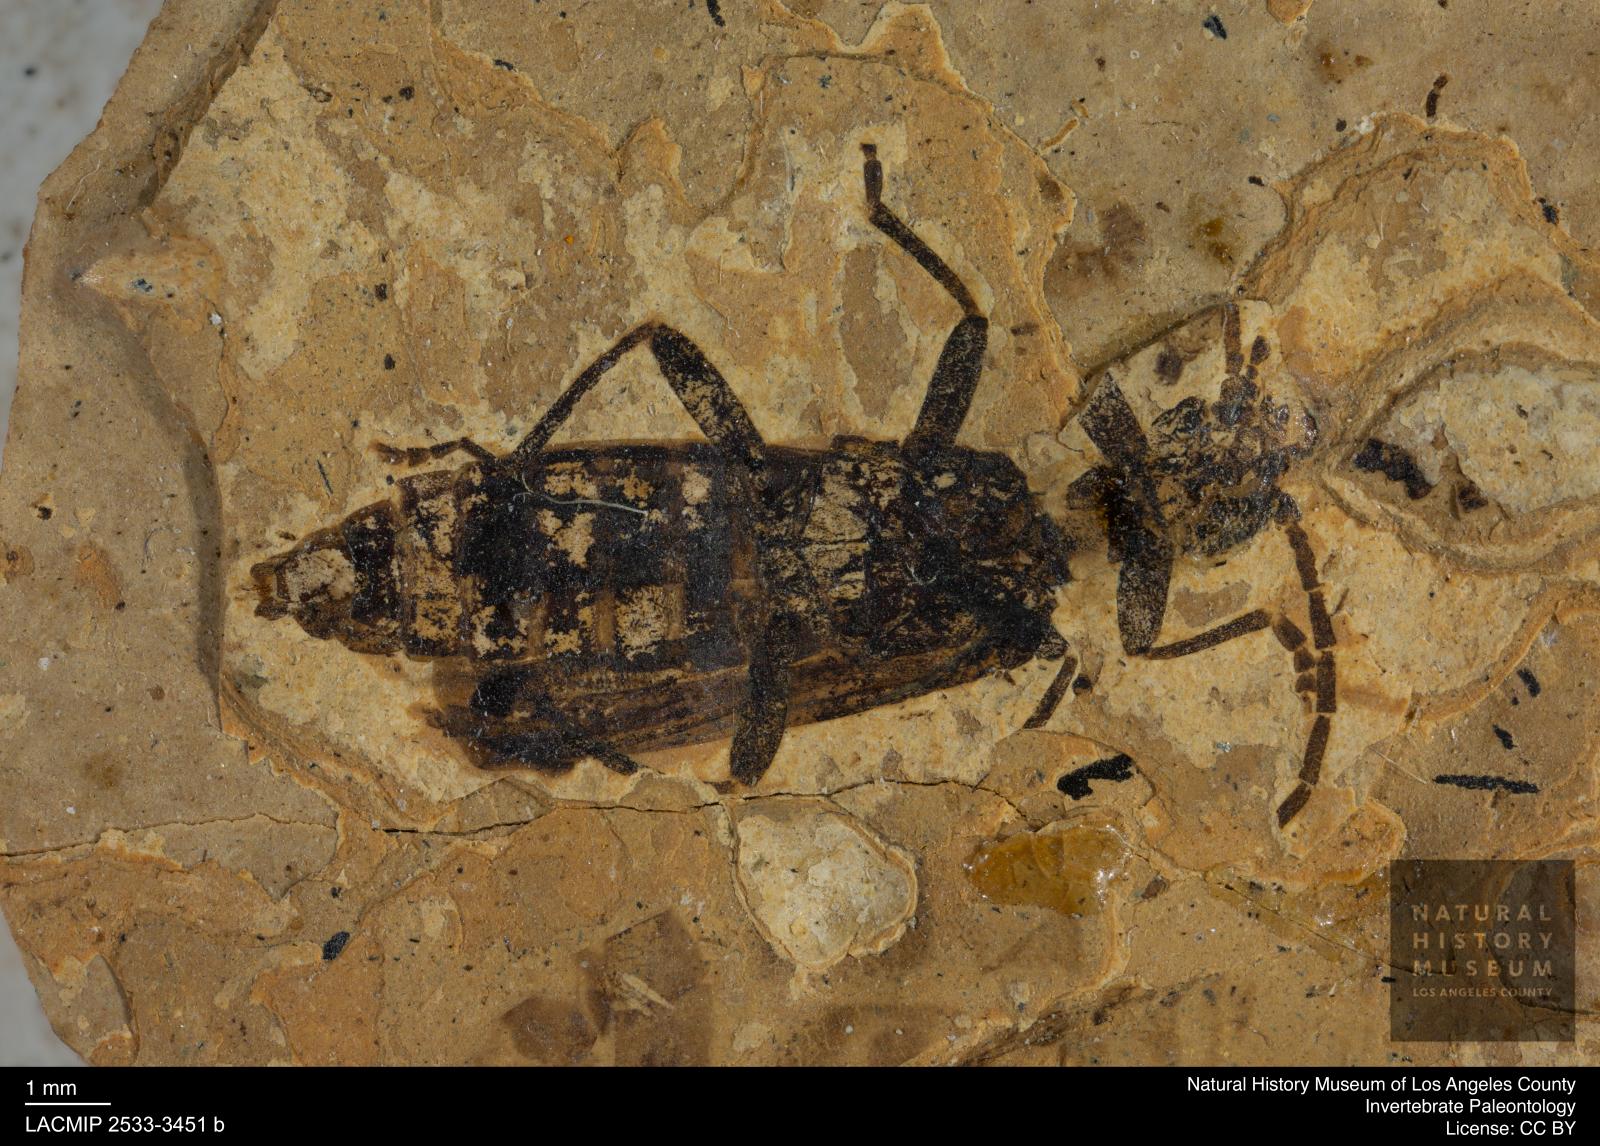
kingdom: Animalia
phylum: Arthropoda
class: Insecta
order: Coleoptera
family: Cantharidae
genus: Cantharis
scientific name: Cantharis bradburyi
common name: Solider beetle
